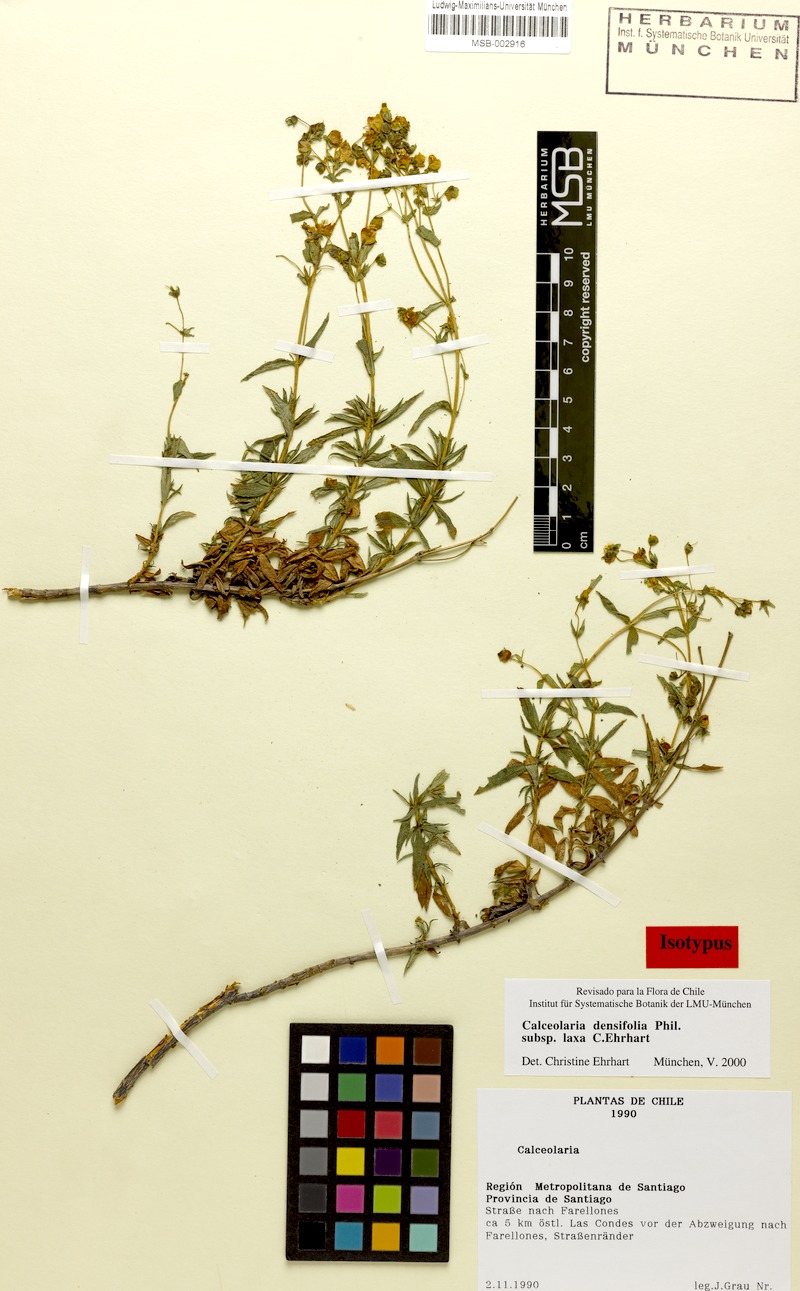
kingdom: Plantae
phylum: Tracheophyta
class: Magnoliopsida
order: Lamiales
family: Calceolariaceae
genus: Calceolaria
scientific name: Calceolaria densifolia
